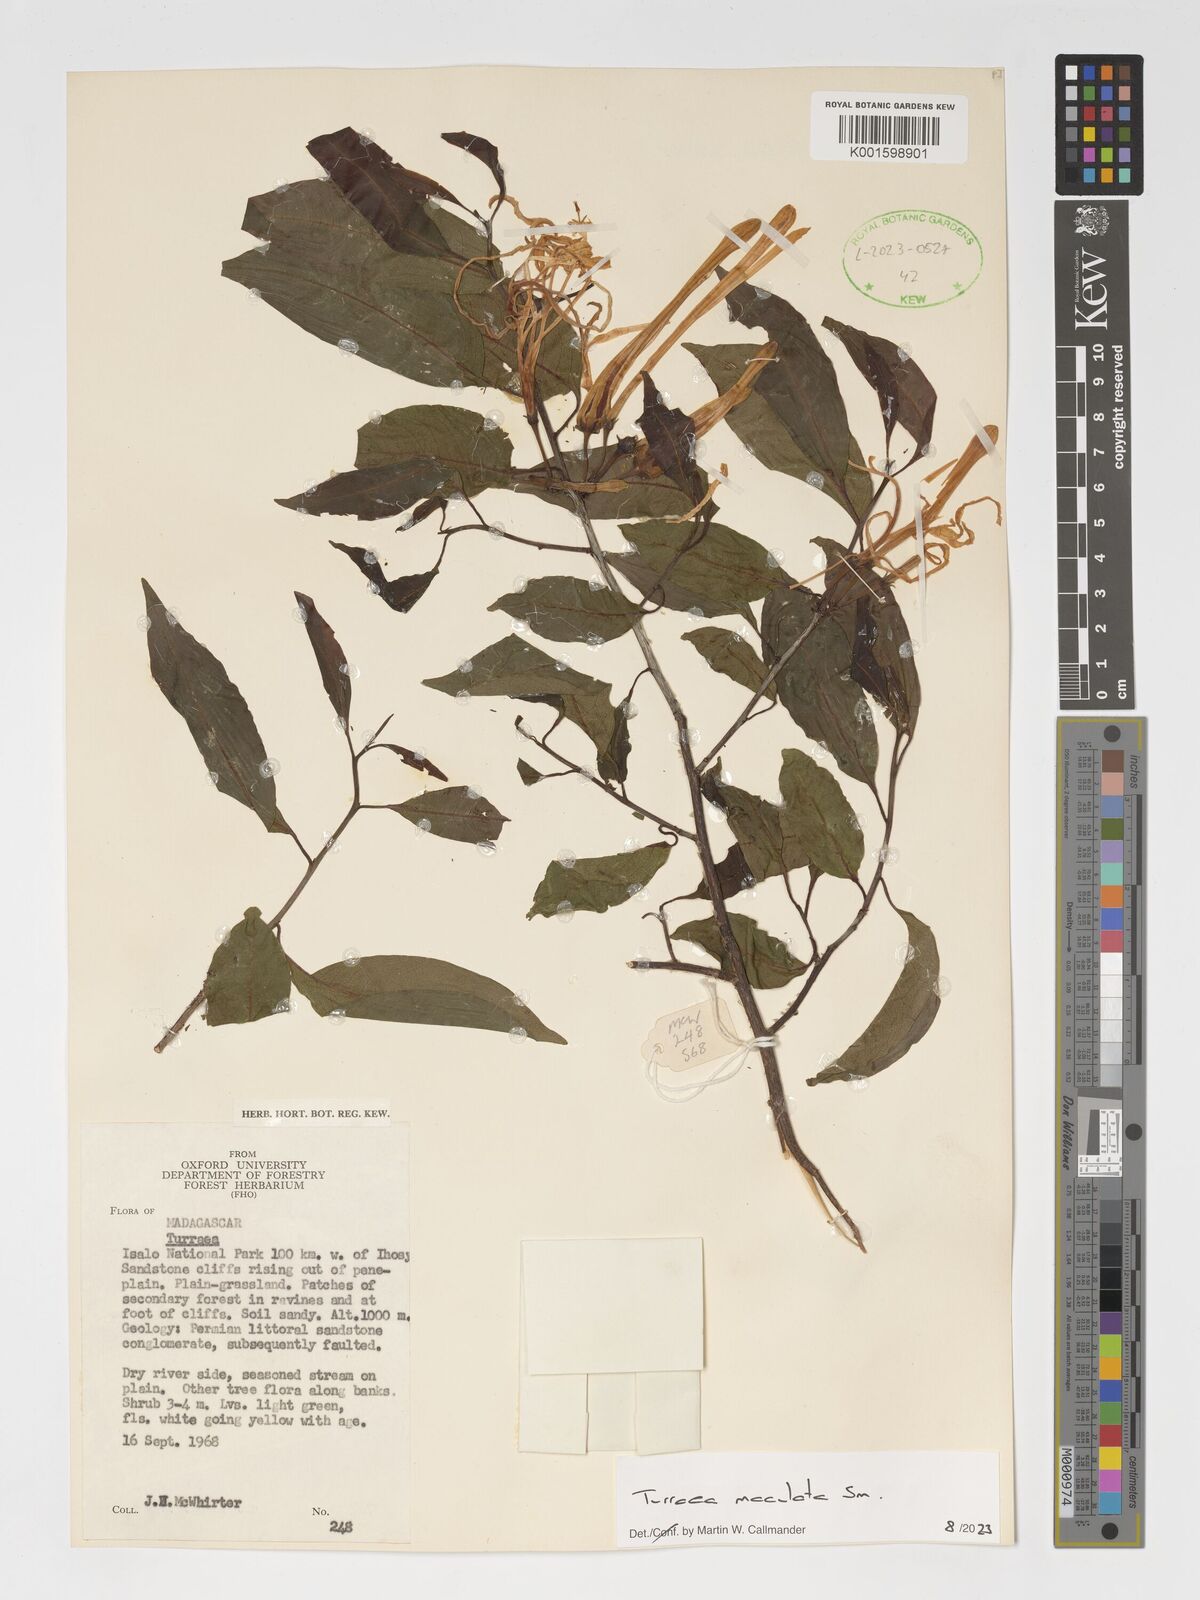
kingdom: Plantae
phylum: Tracheophyta
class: Magnoliopsida
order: Sapindales
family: Meliaceae
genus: Humbertioturraea
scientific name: Humbertioturraea maculata
